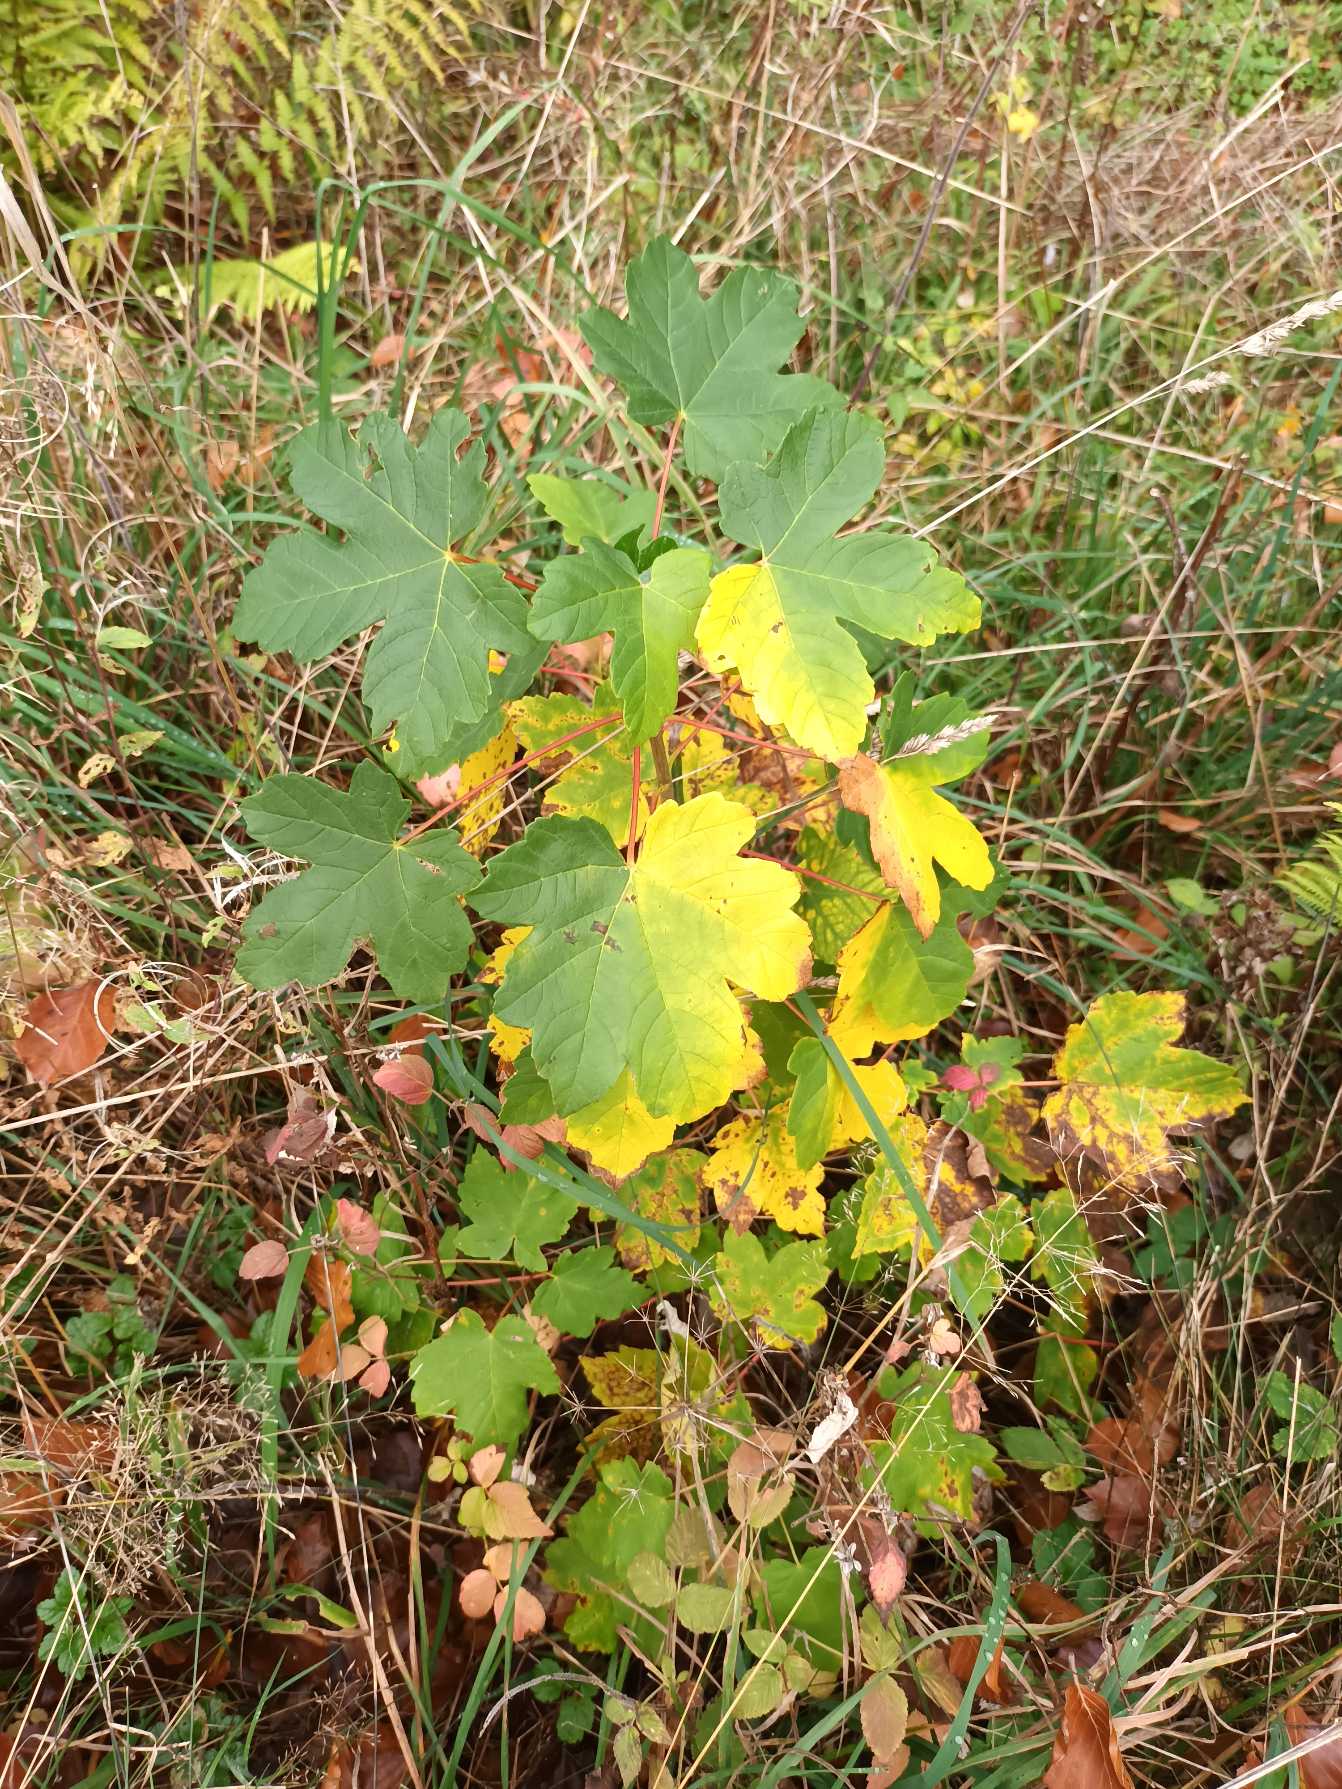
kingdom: Plantae
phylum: Tracheophyta
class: Magnoliopsida
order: Sapindales
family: Sapindaceae
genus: Acer
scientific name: Acer pseudoplatanus
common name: Ahorn
